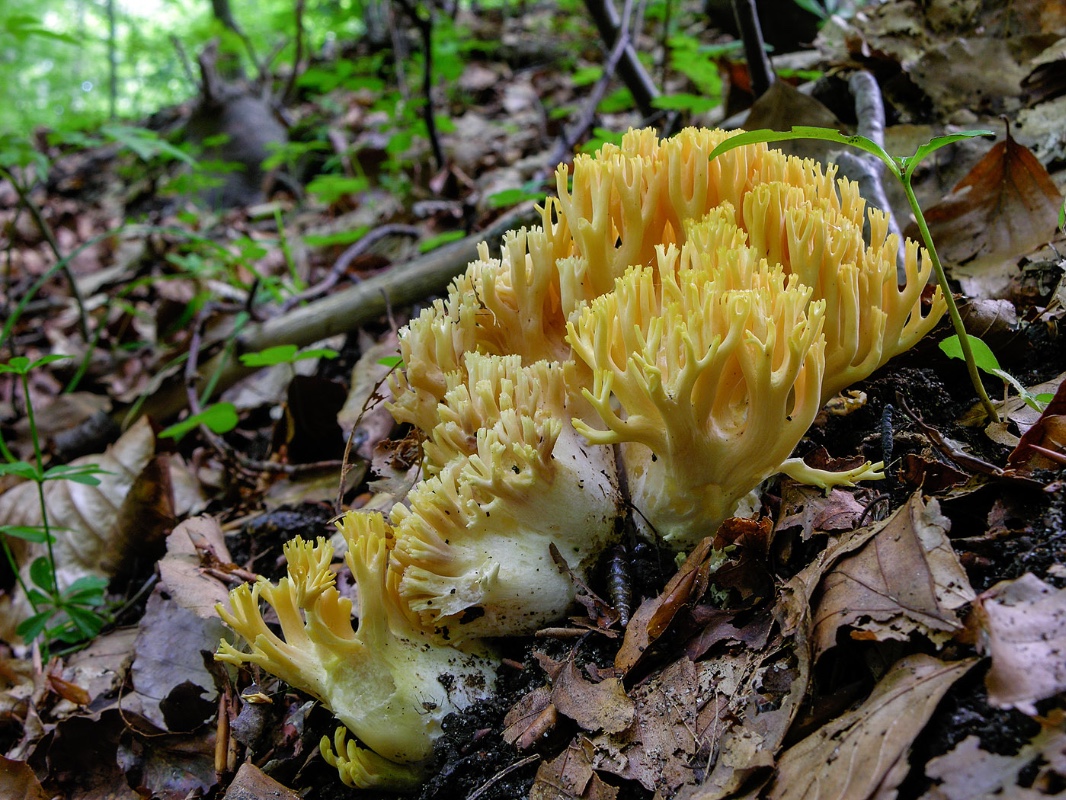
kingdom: Fungi
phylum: Basidiomycota
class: Agaricomycetes
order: Gomphales
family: Gomphaceae
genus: Ramaria
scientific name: Ramaria brunneicontusa
